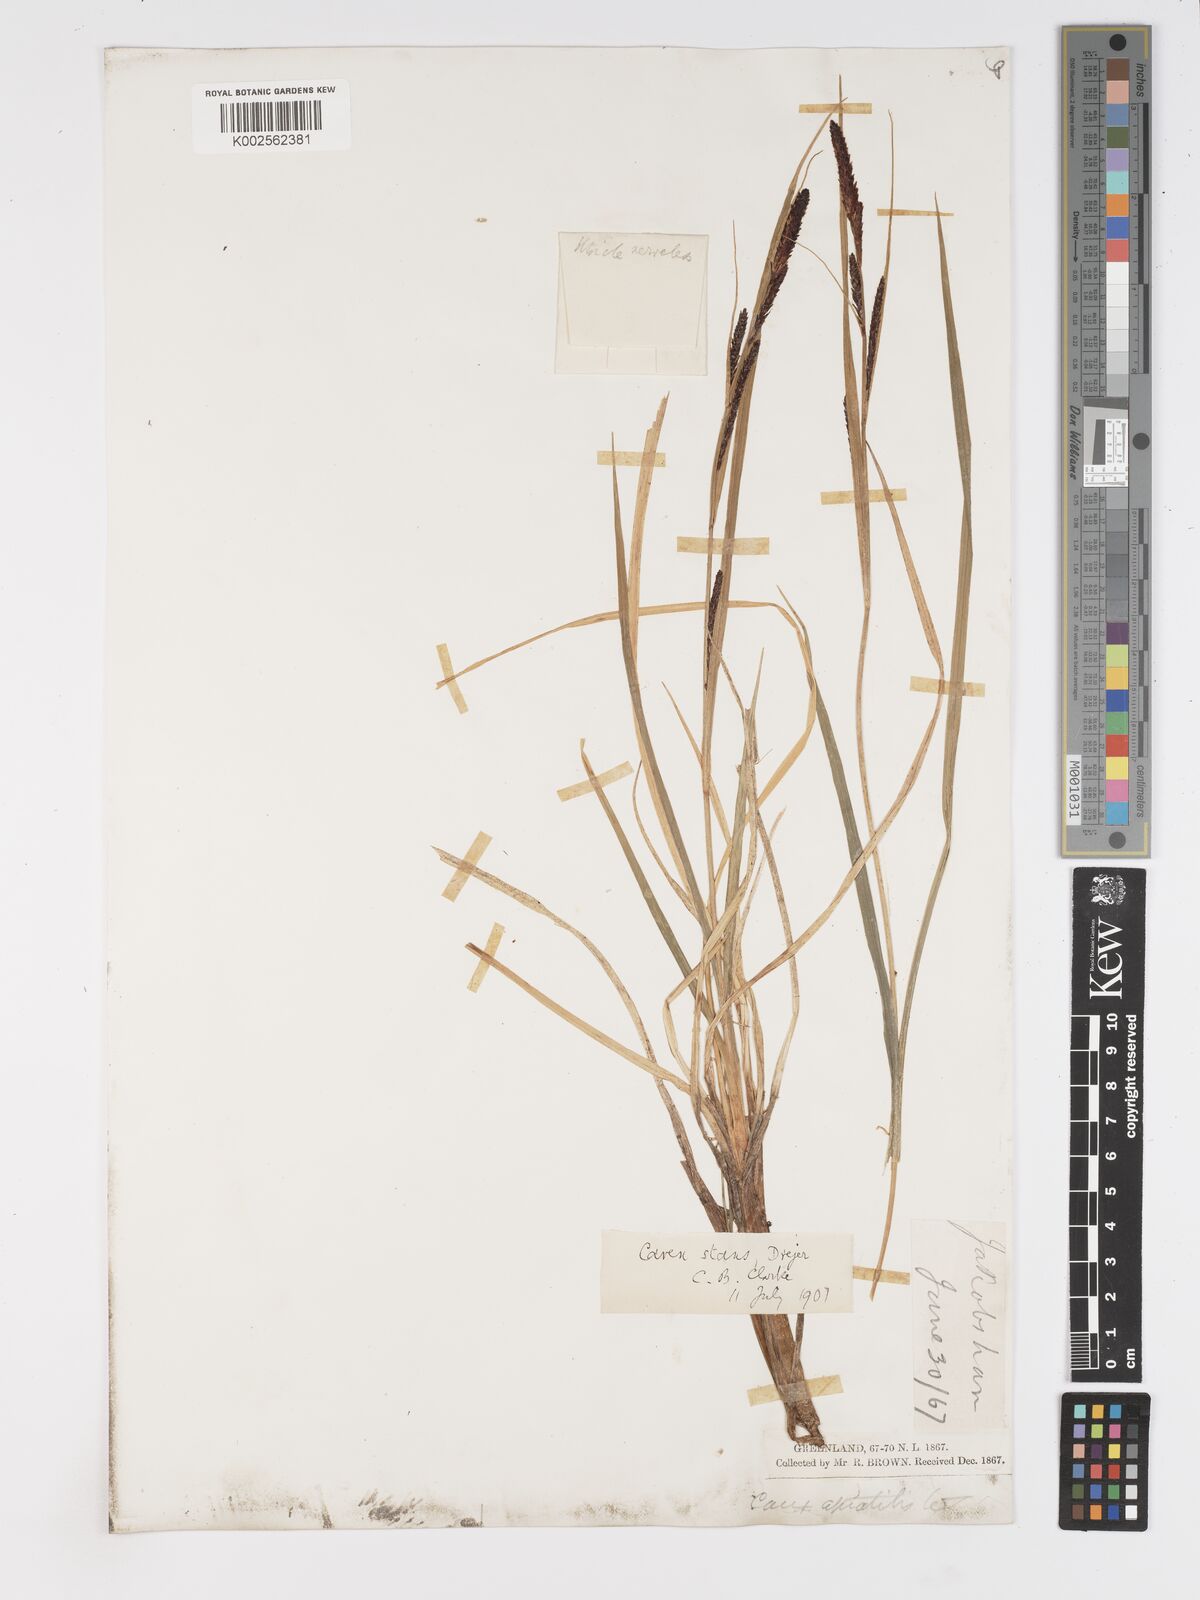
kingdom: Plantae
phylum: Tracheophyta
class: Liliopsida
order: Poales
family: Cyperaceae
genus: Carex
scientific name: Carex aquatilis
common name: Water sedge
